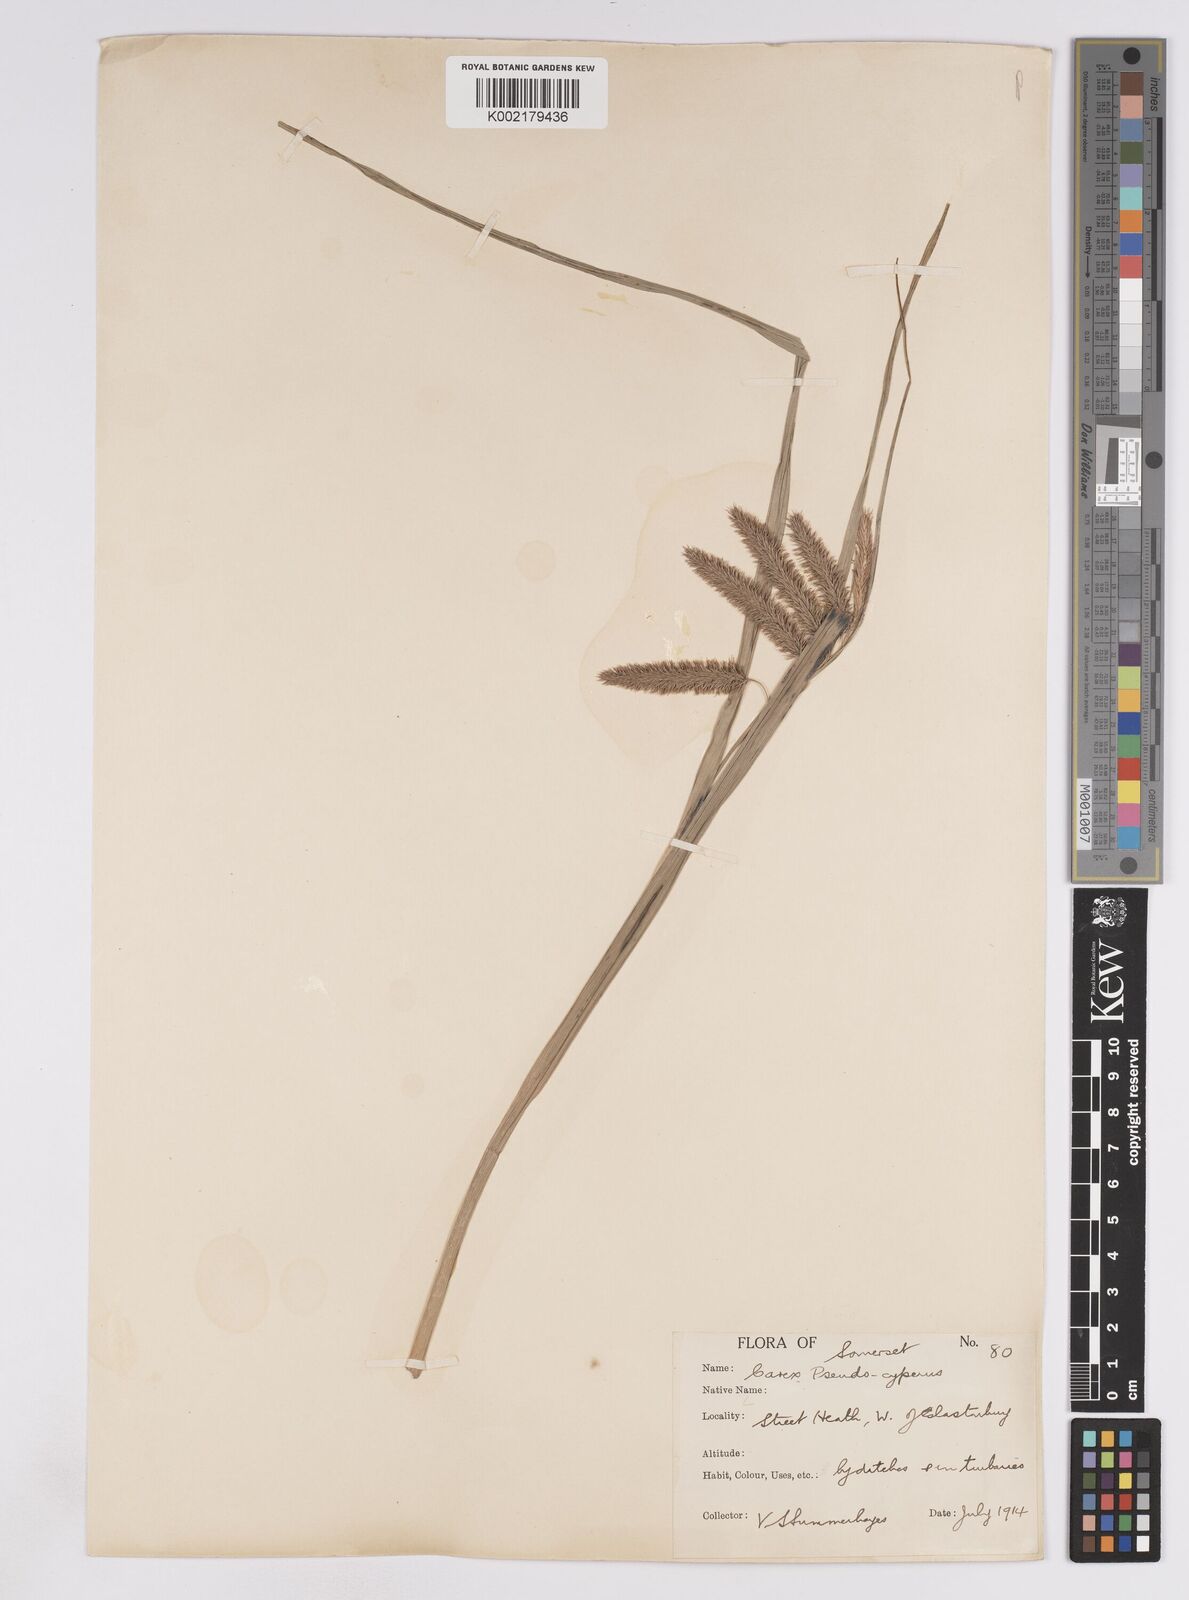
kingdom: Plantae
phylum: Tracheophyta
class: Liliopsida
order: Poales
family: Cyperaceae
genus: Carex
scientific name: Carex pseudocyperus
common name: Cyperus sedge
